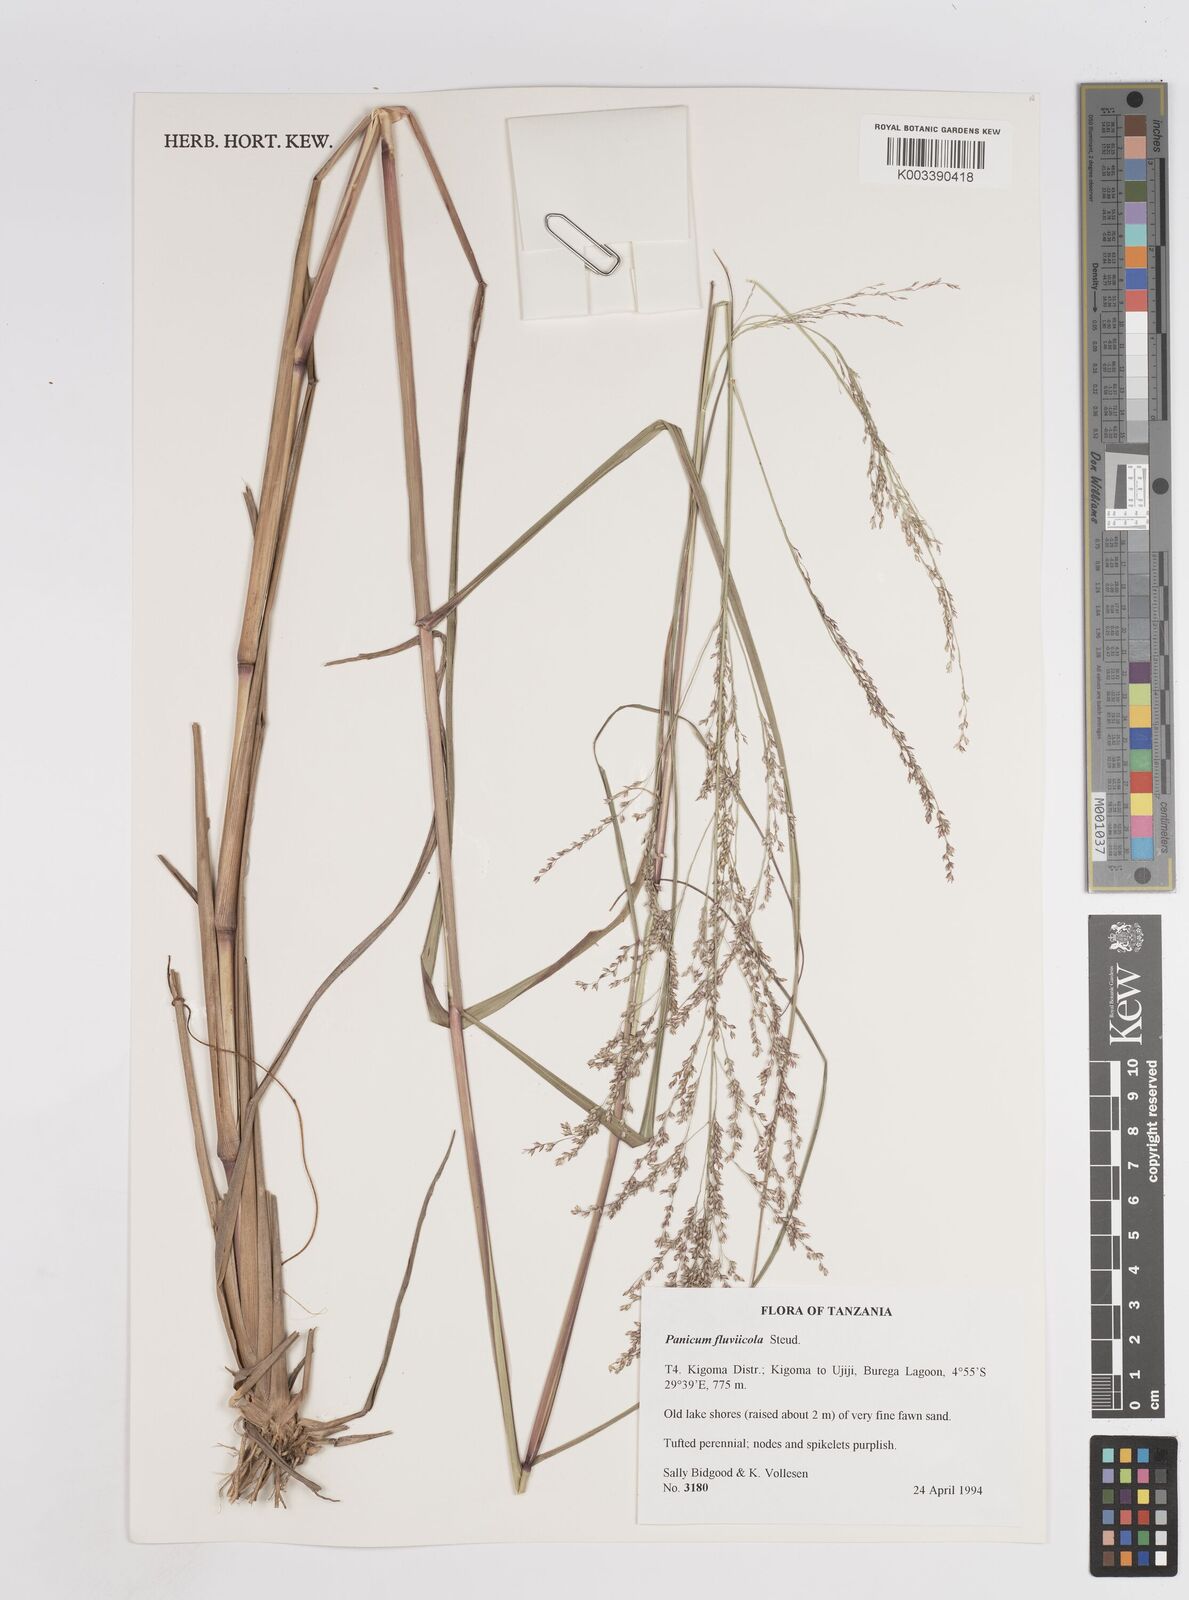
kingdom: Plantae
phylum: Tracheophyta
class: Liliopsida
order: Poales
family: Poaceae
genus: Panicum
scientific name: Panicum fluviicola
